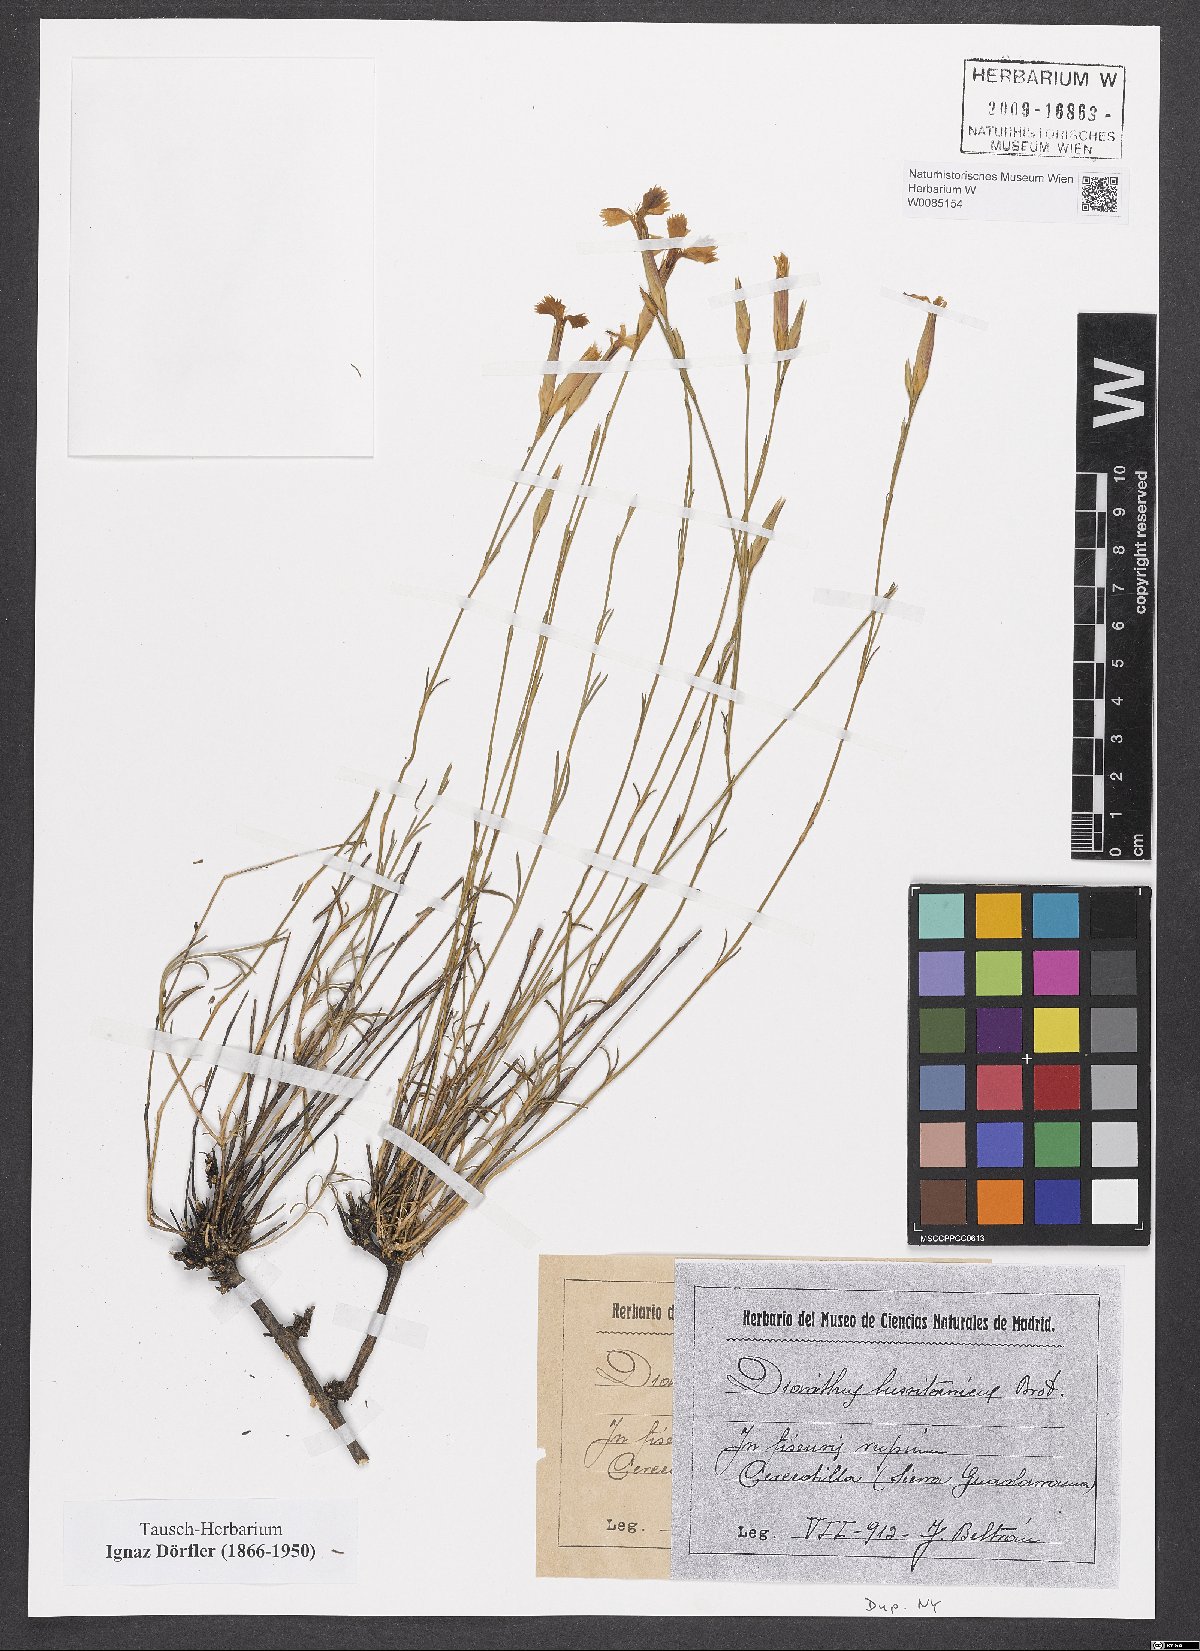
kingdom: Plantae
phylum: Tracheophyta
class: Magnoliopsida
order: Caryophyllales
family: Caryophyllaceae
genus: Dianthus
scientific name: Dianthus lusitanus
